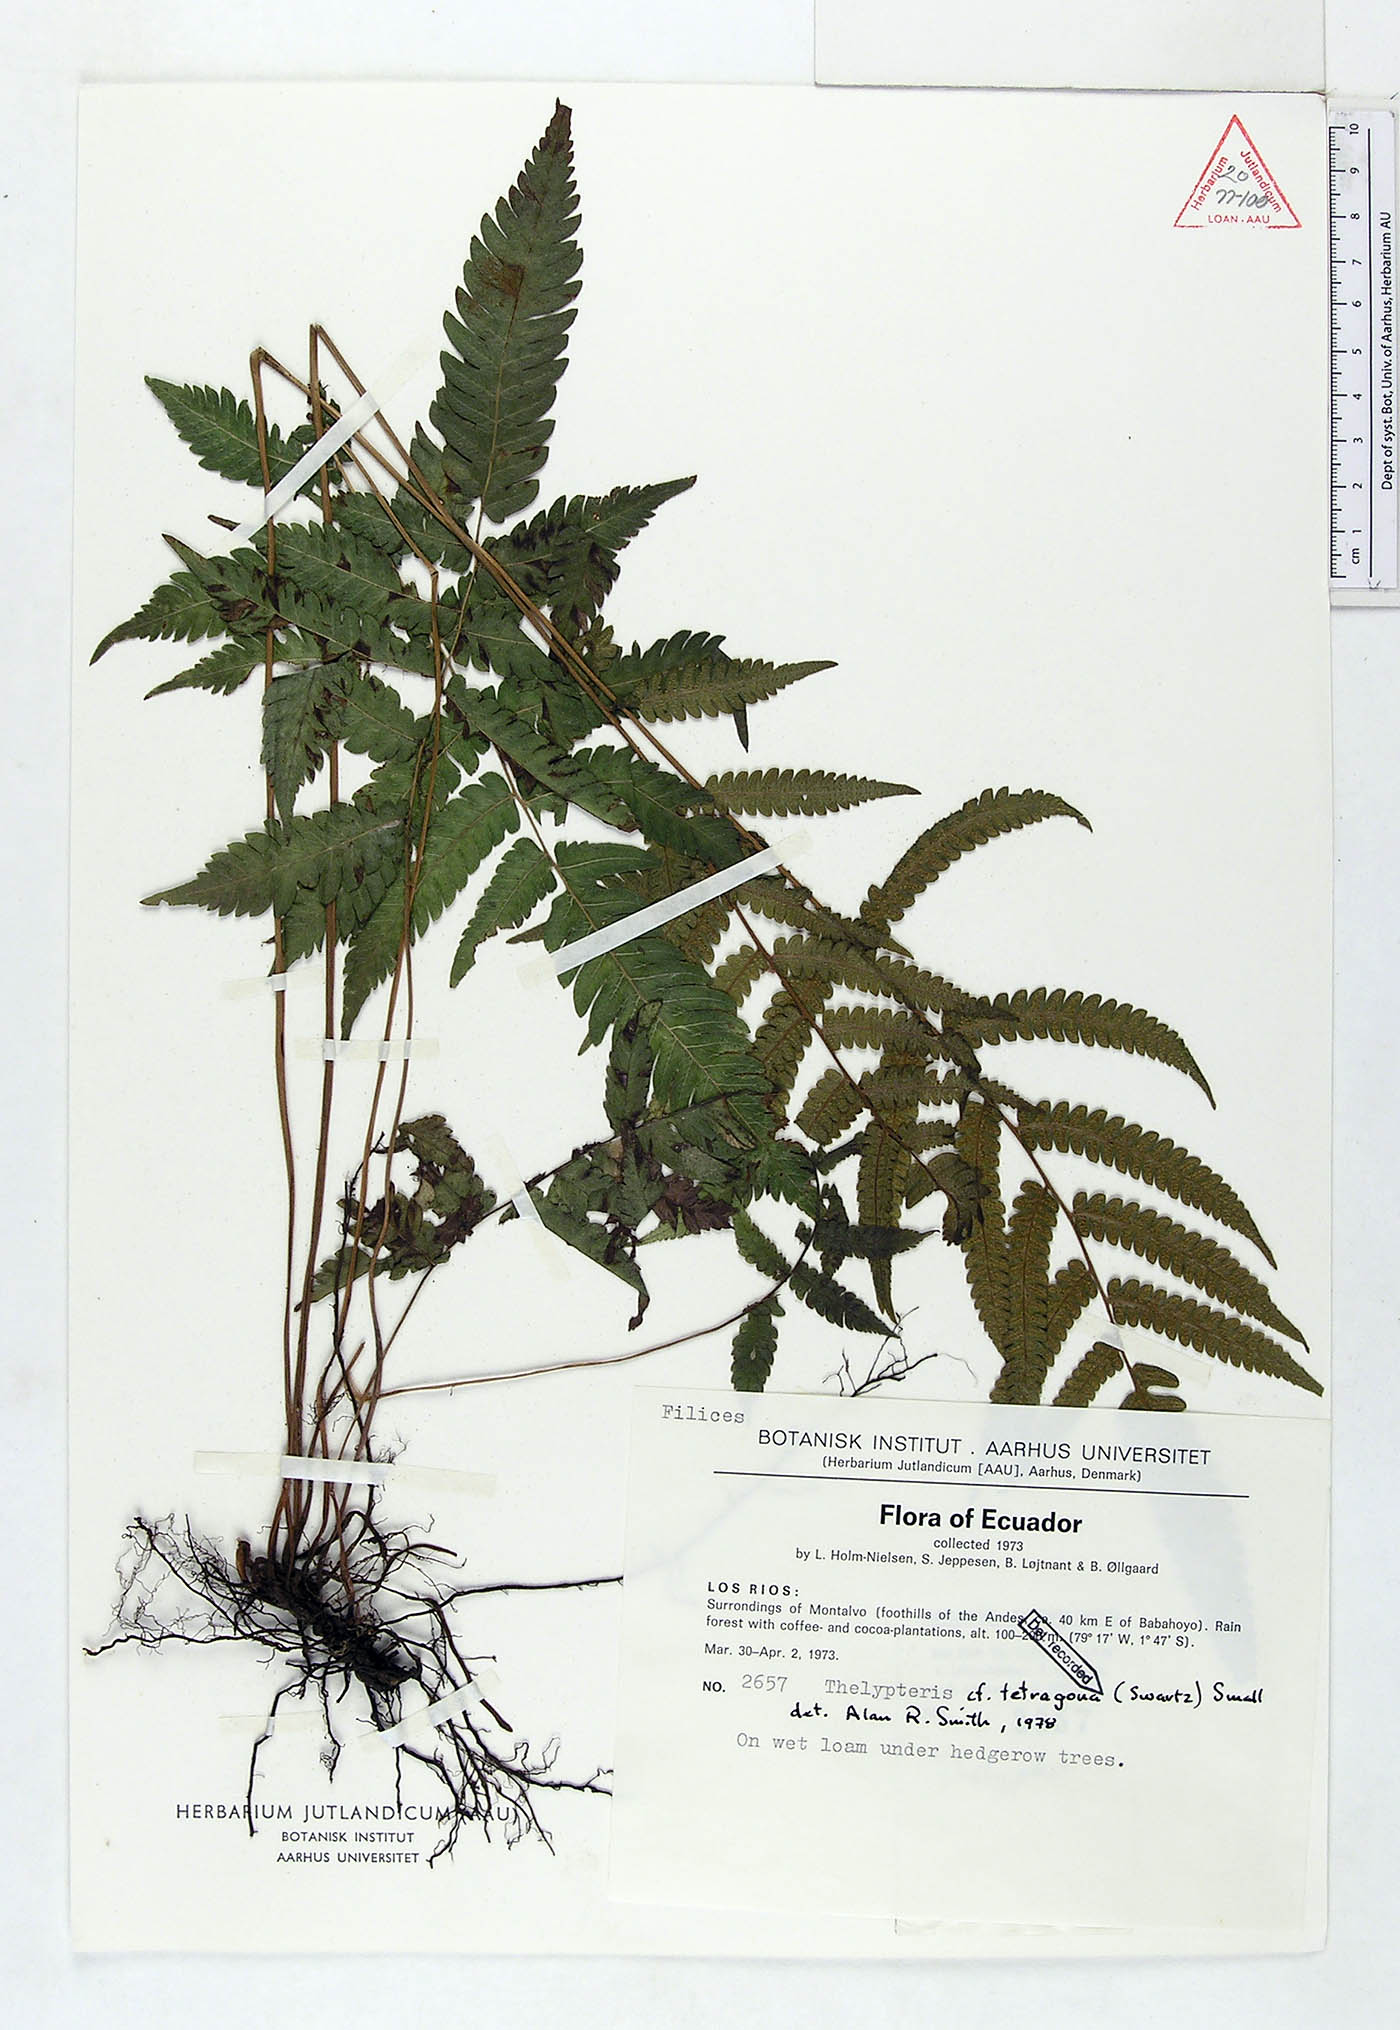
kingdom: Plantae
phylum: Tracheophyta
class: Polypodiopsida
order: Polypodiales
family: Thelypteridaceae
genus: Goniopteris
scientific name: Goniopteris tetragona
